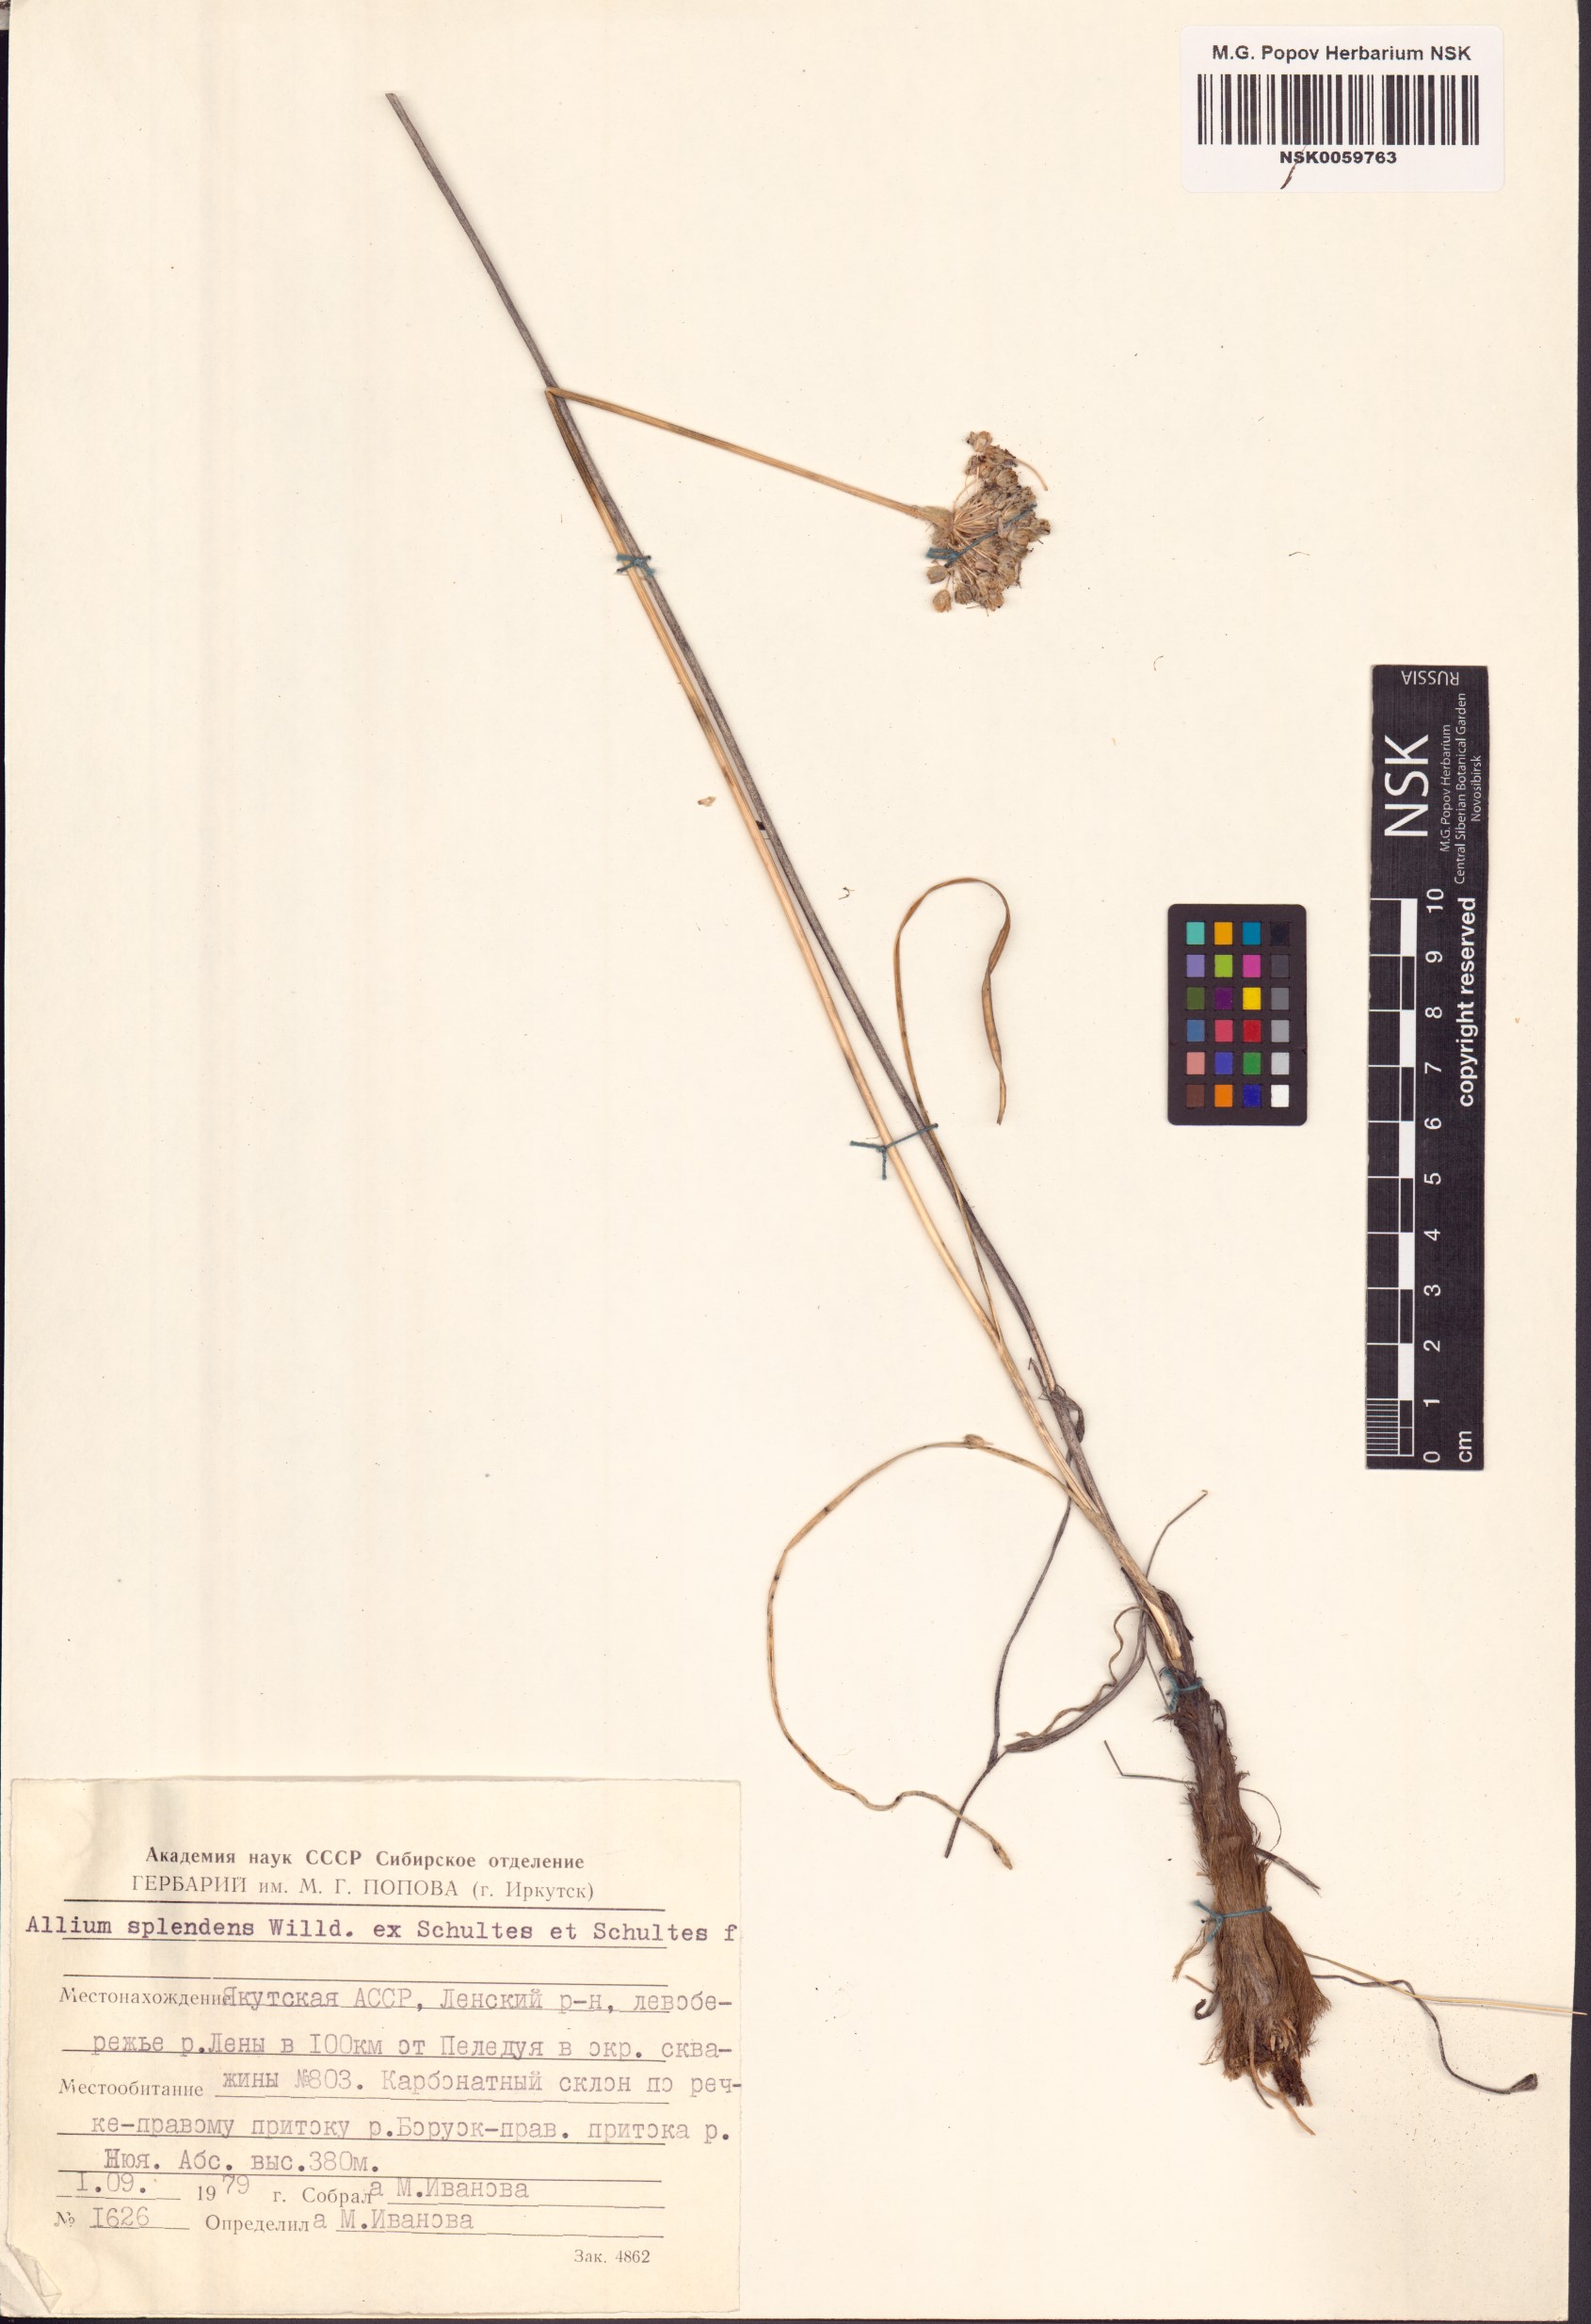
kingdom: Plantae
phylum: Tracheophyta
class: Liliopsida
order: Asparagales
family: Amaryllidaceae
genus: Allium
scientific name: Allium splendens
